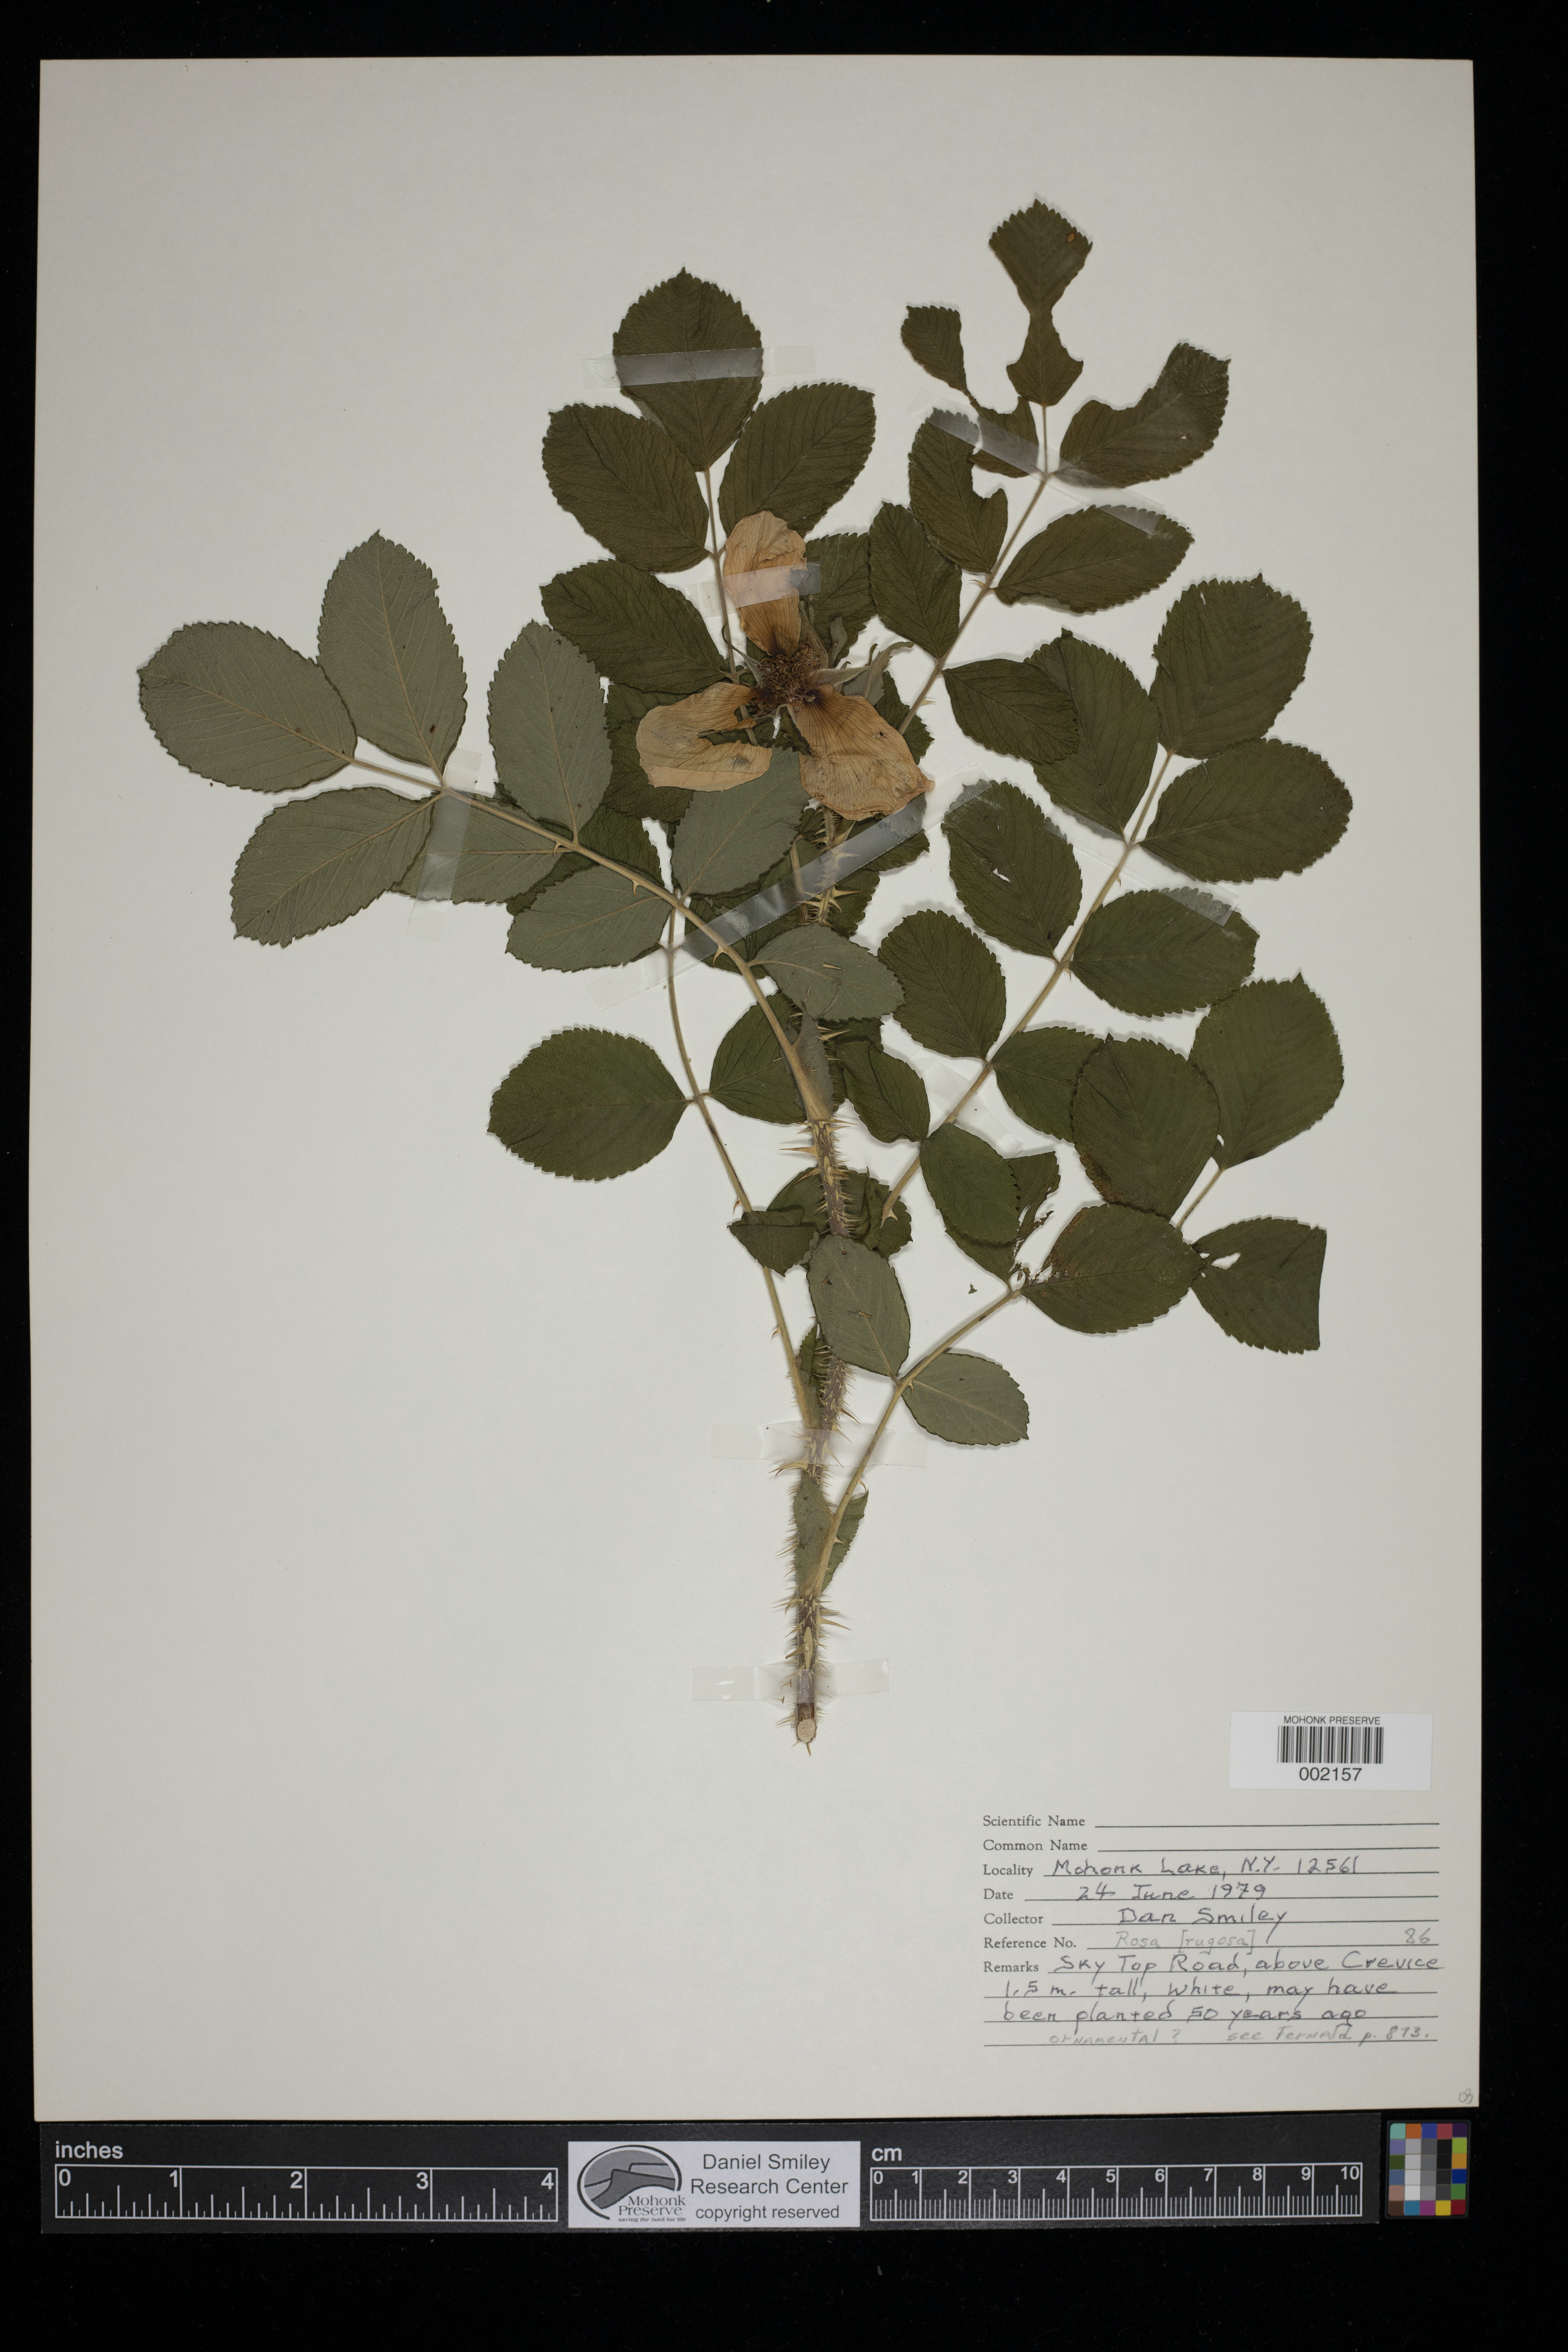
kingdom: Plantae
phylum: Tracheophyta
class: Magnoliopsida
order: Rosales
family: Rosaceae
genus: Rosa
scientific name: Rosa rugosa
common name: Japanese rose
